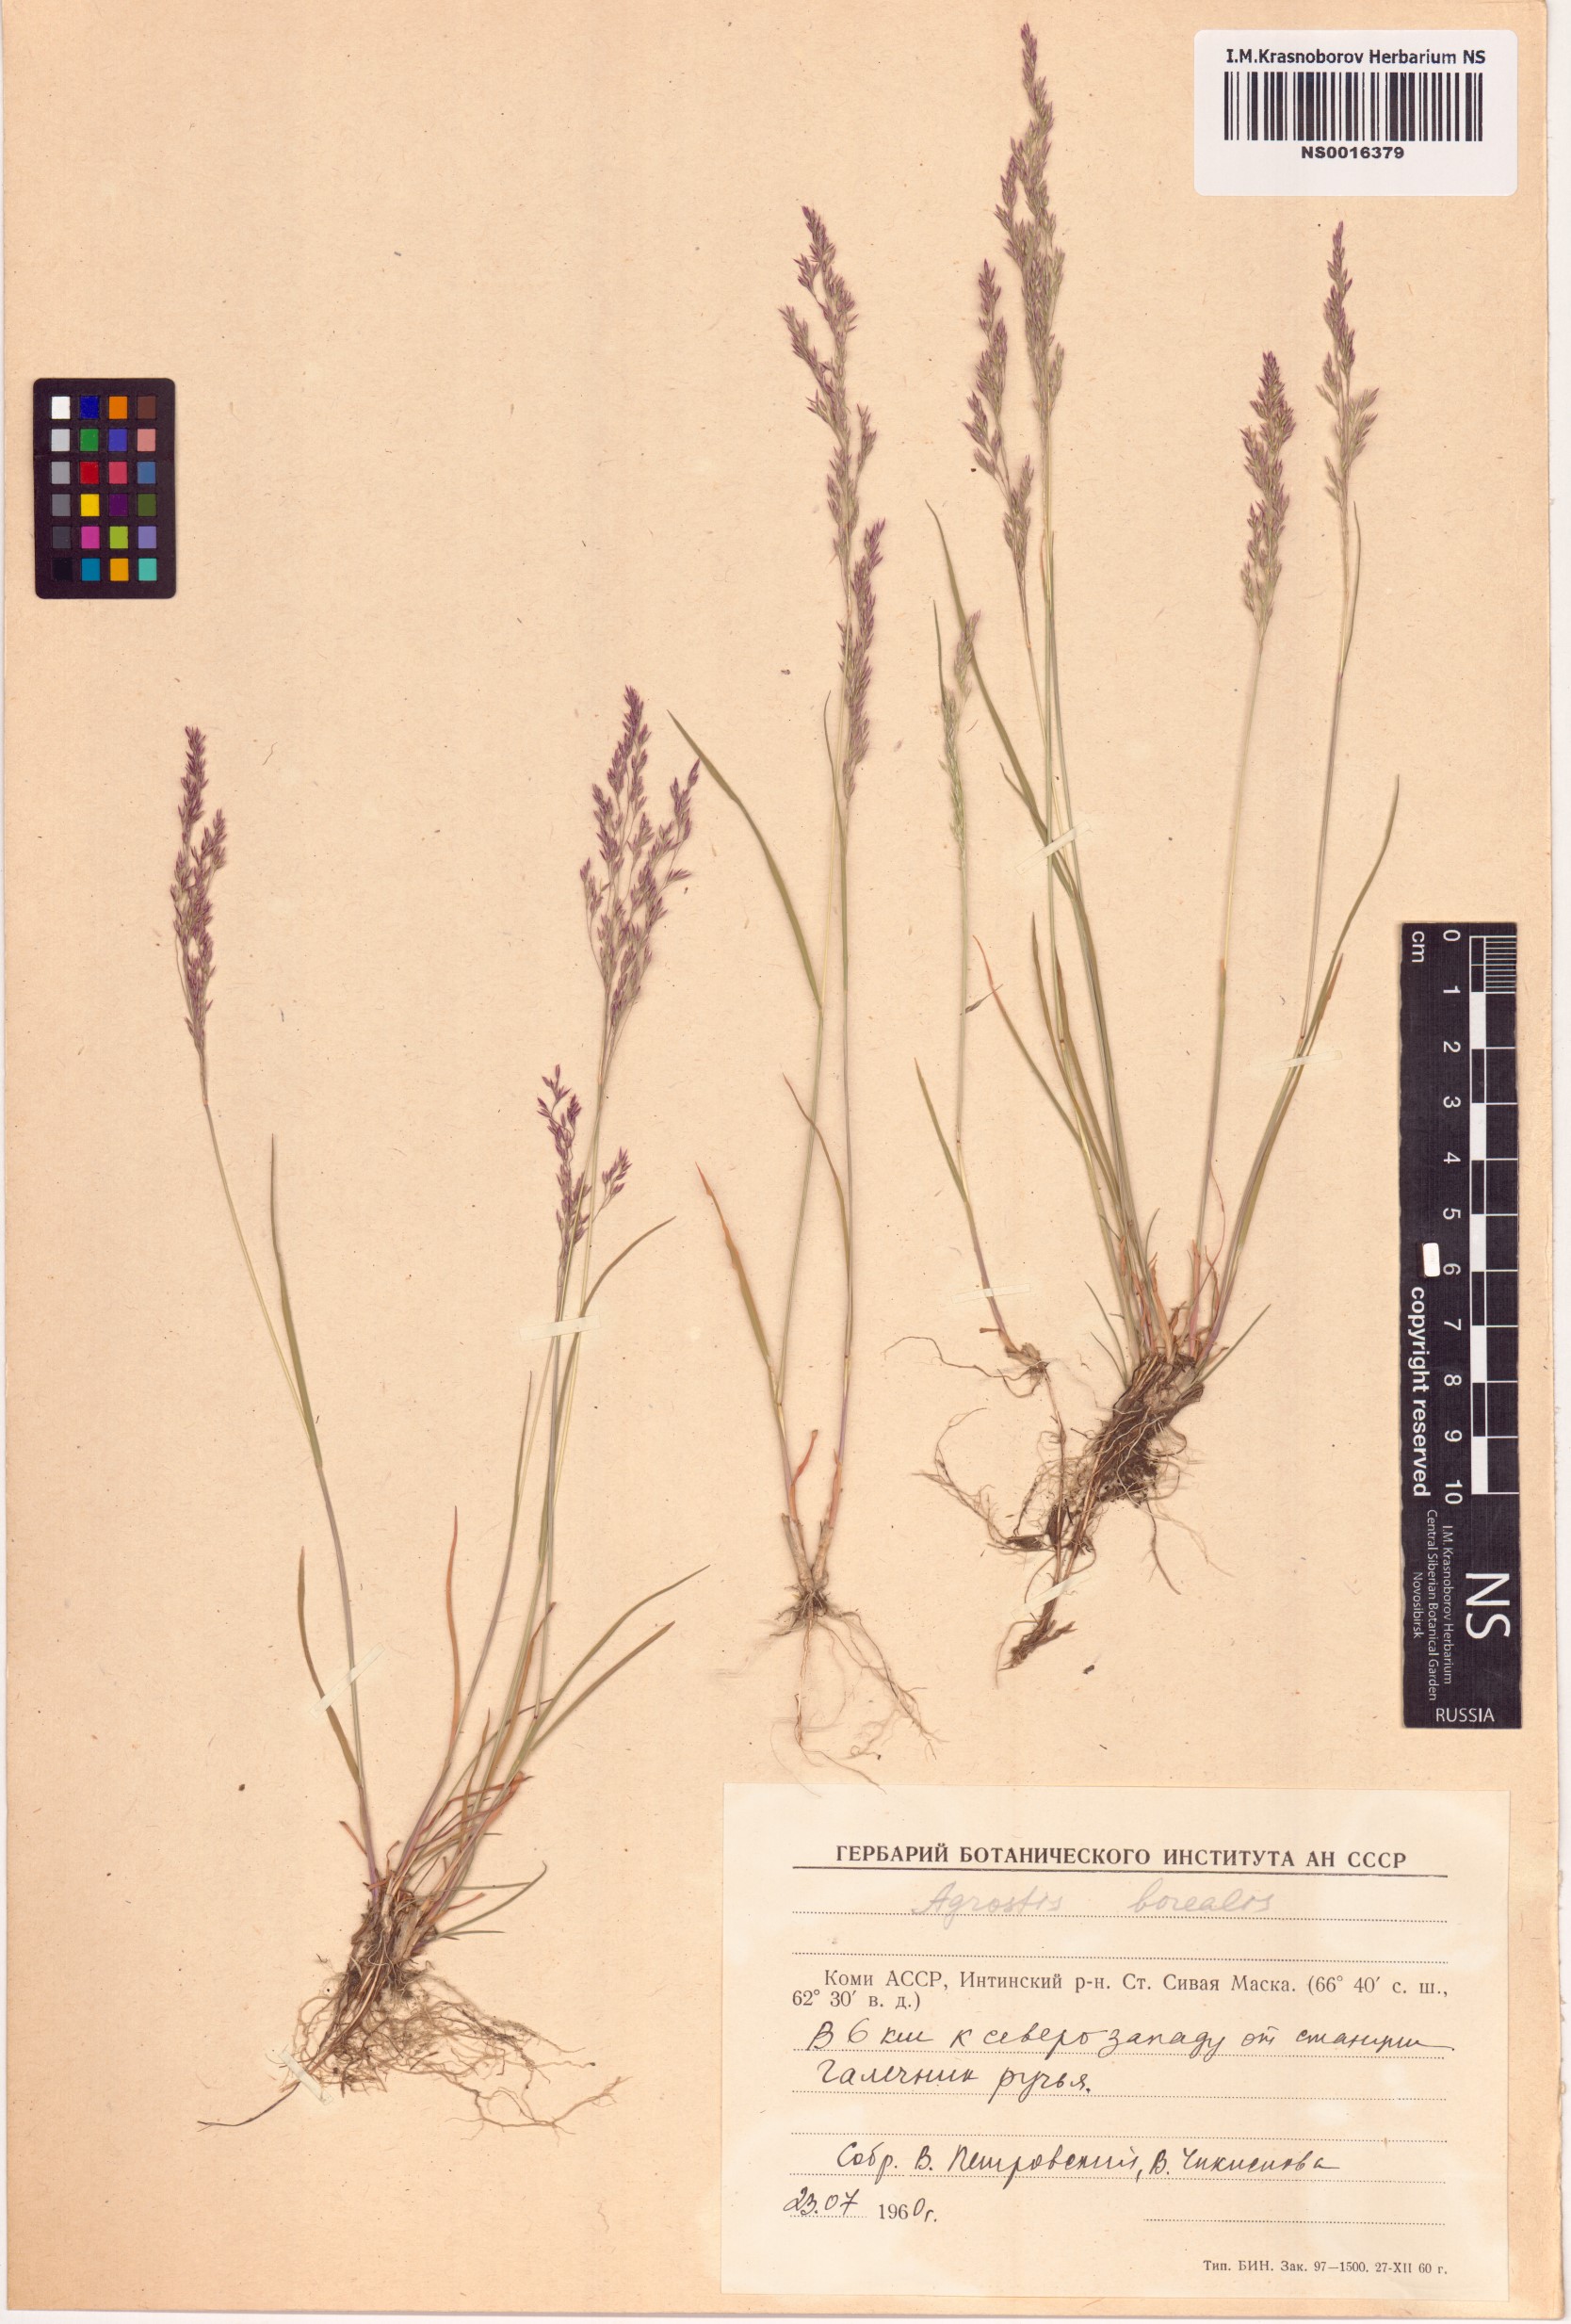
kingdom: Plantae
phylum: Tracheophyta
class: Liliopsida
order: Poales
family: Poaceae
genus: Agrostis
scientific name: Agrostis mertensii
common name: Northern bent
